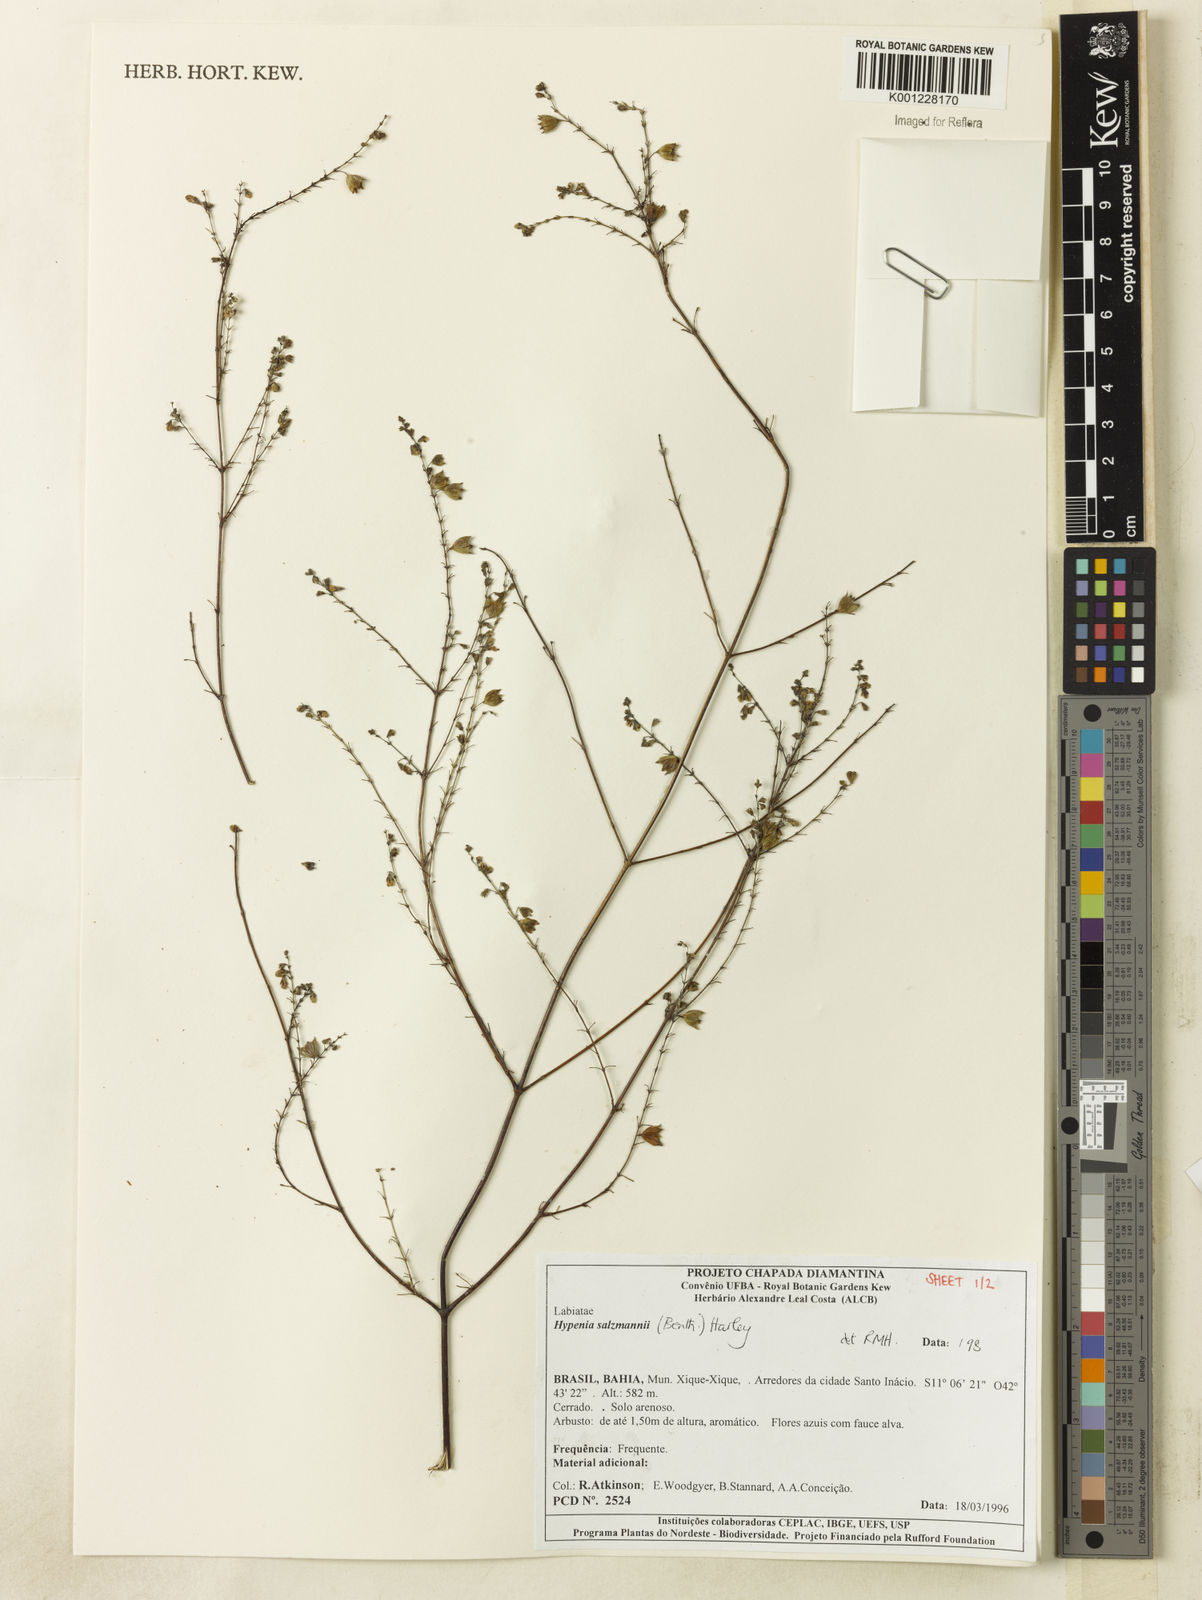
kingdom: Plantae
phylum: Tracheophyta
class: Magnoliopsida
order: Lamiales
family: Lamiaceae
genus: Hypenia
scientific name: Hypenia salzmannii
